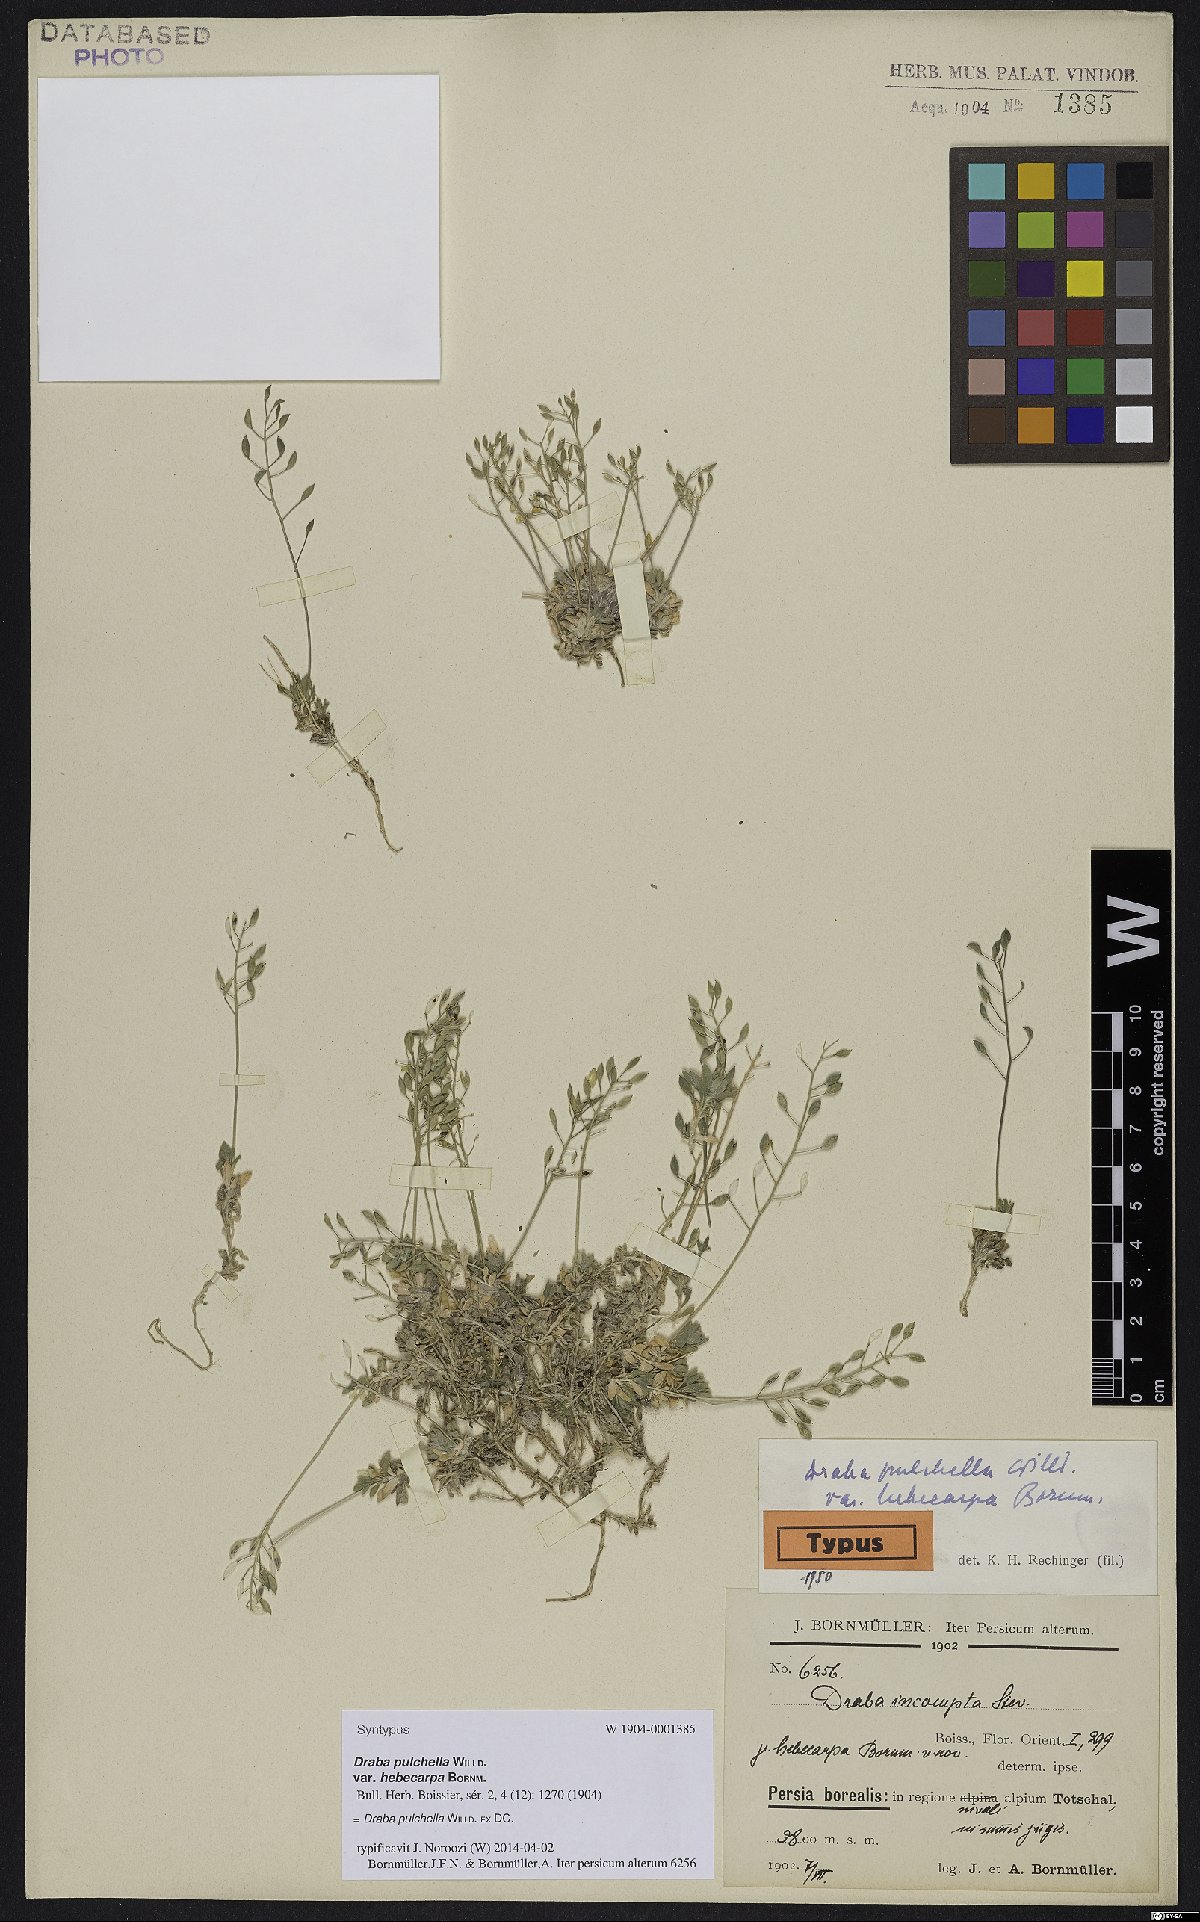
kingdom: Plantae
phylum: Tracheophyta
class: Magnoliopsida
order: Brassicales
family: Brassicaceae
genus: Draba
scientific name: Draba pulchella
